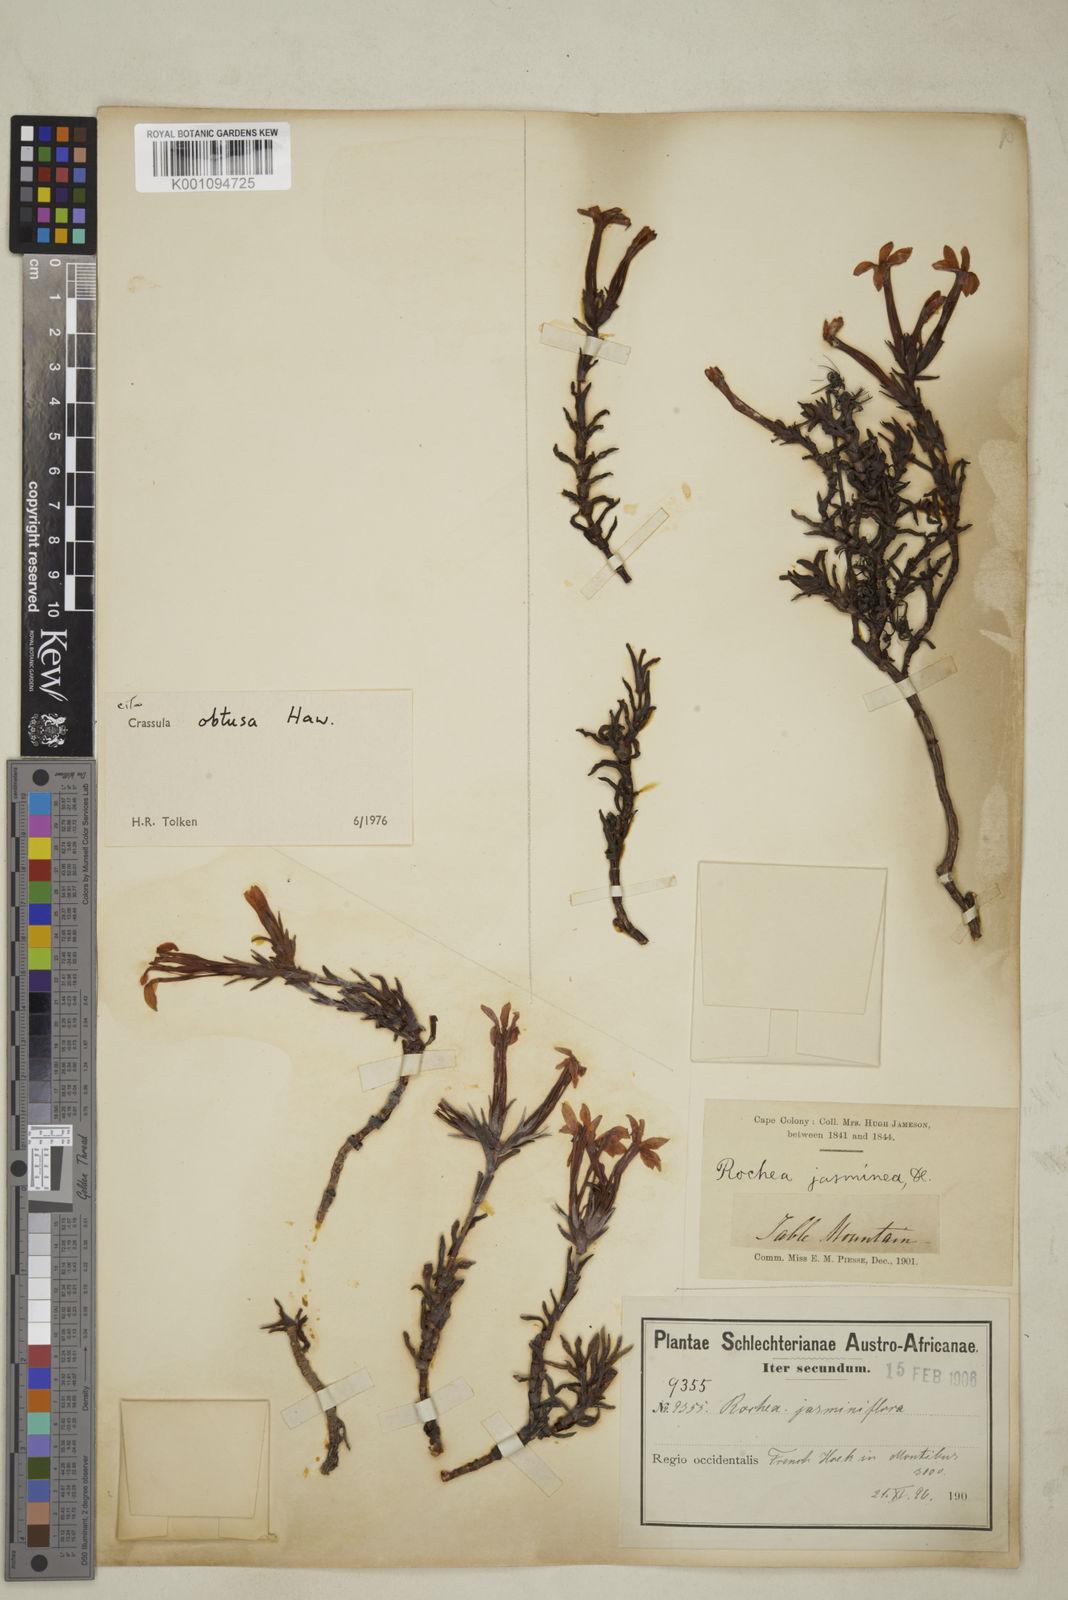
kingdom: Plantae
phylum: Tracheophyta
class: Magnoliopsida
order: Saxifragales
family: Crassulaceae
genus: Crassula
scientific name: Crassula obtusa
